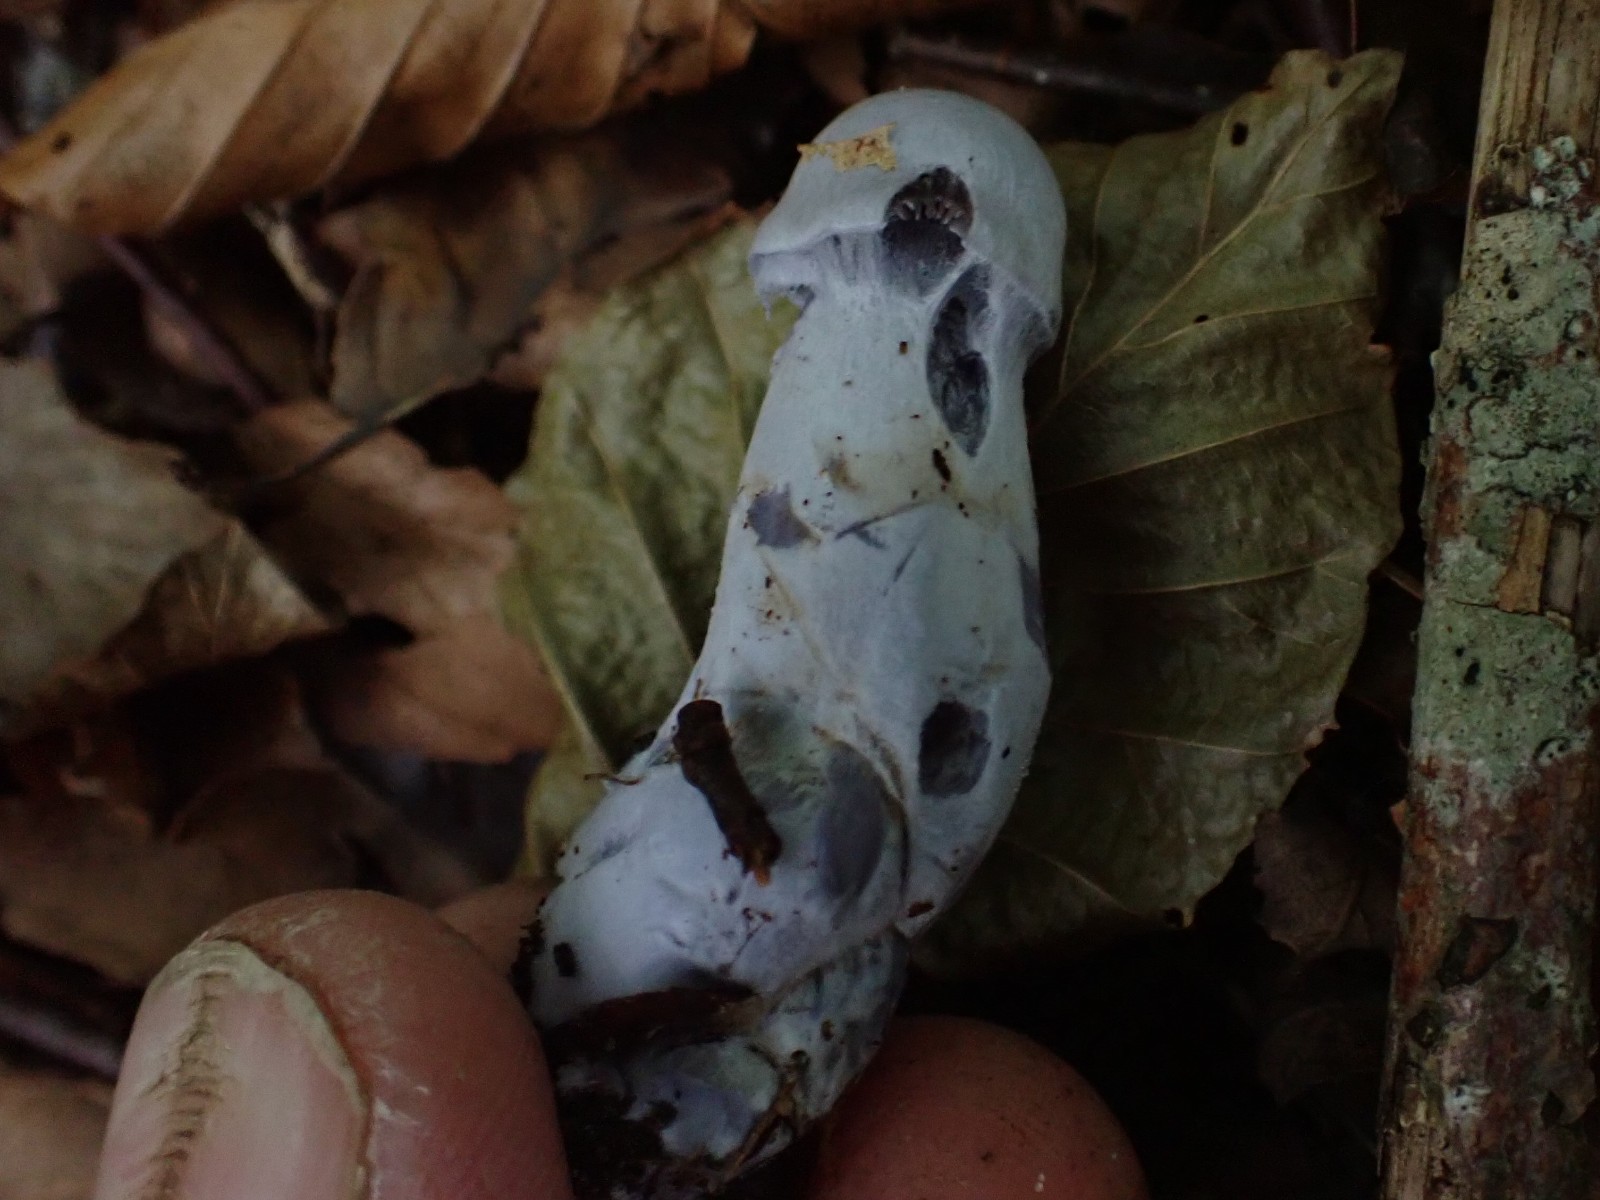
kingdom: Fungi
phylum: Basidiomycota
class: Agaricomycetes
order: Agaricales
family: Cortinariaceae
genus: Cortinarius
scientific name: Cortinarius alboviolaceus
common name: lysviolet slørhat
